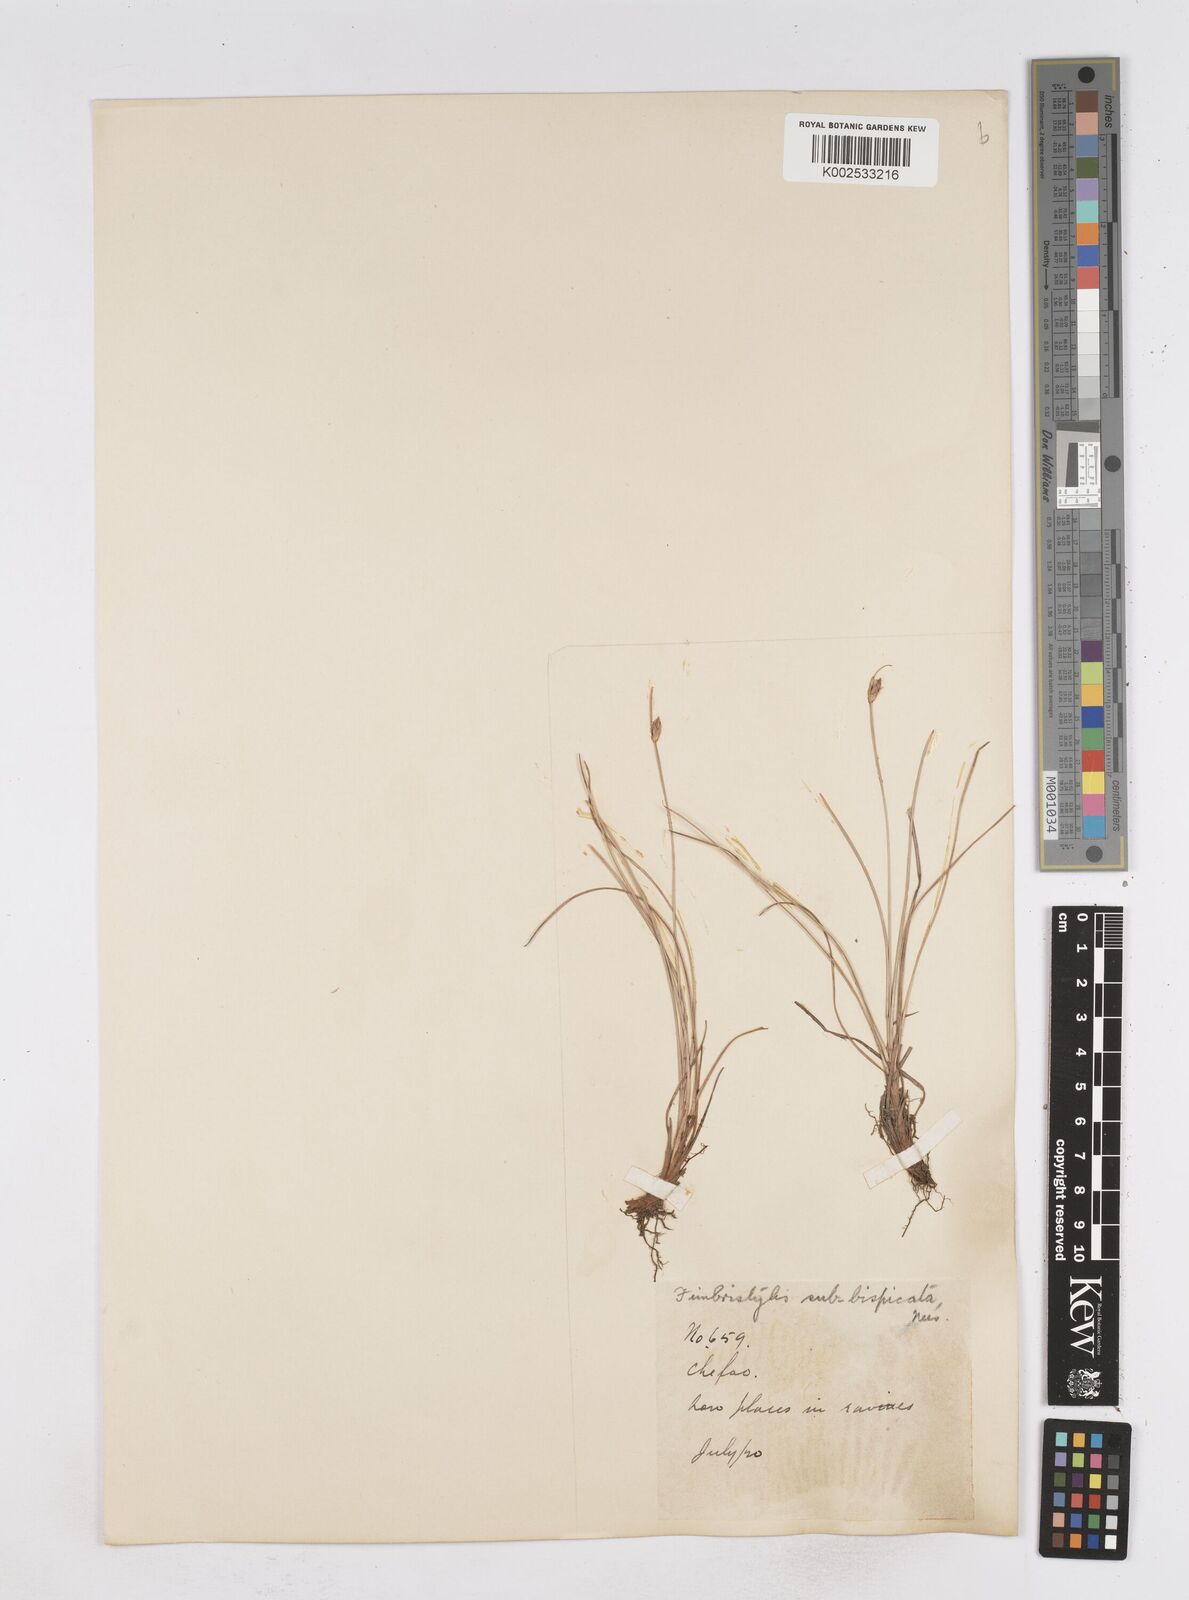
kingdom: Plantae
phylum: Tracheophyta
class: Liliopsida
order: Poales
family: Cyperaceae
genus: Fimbristylis
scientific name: Fimbristylis tristachya
